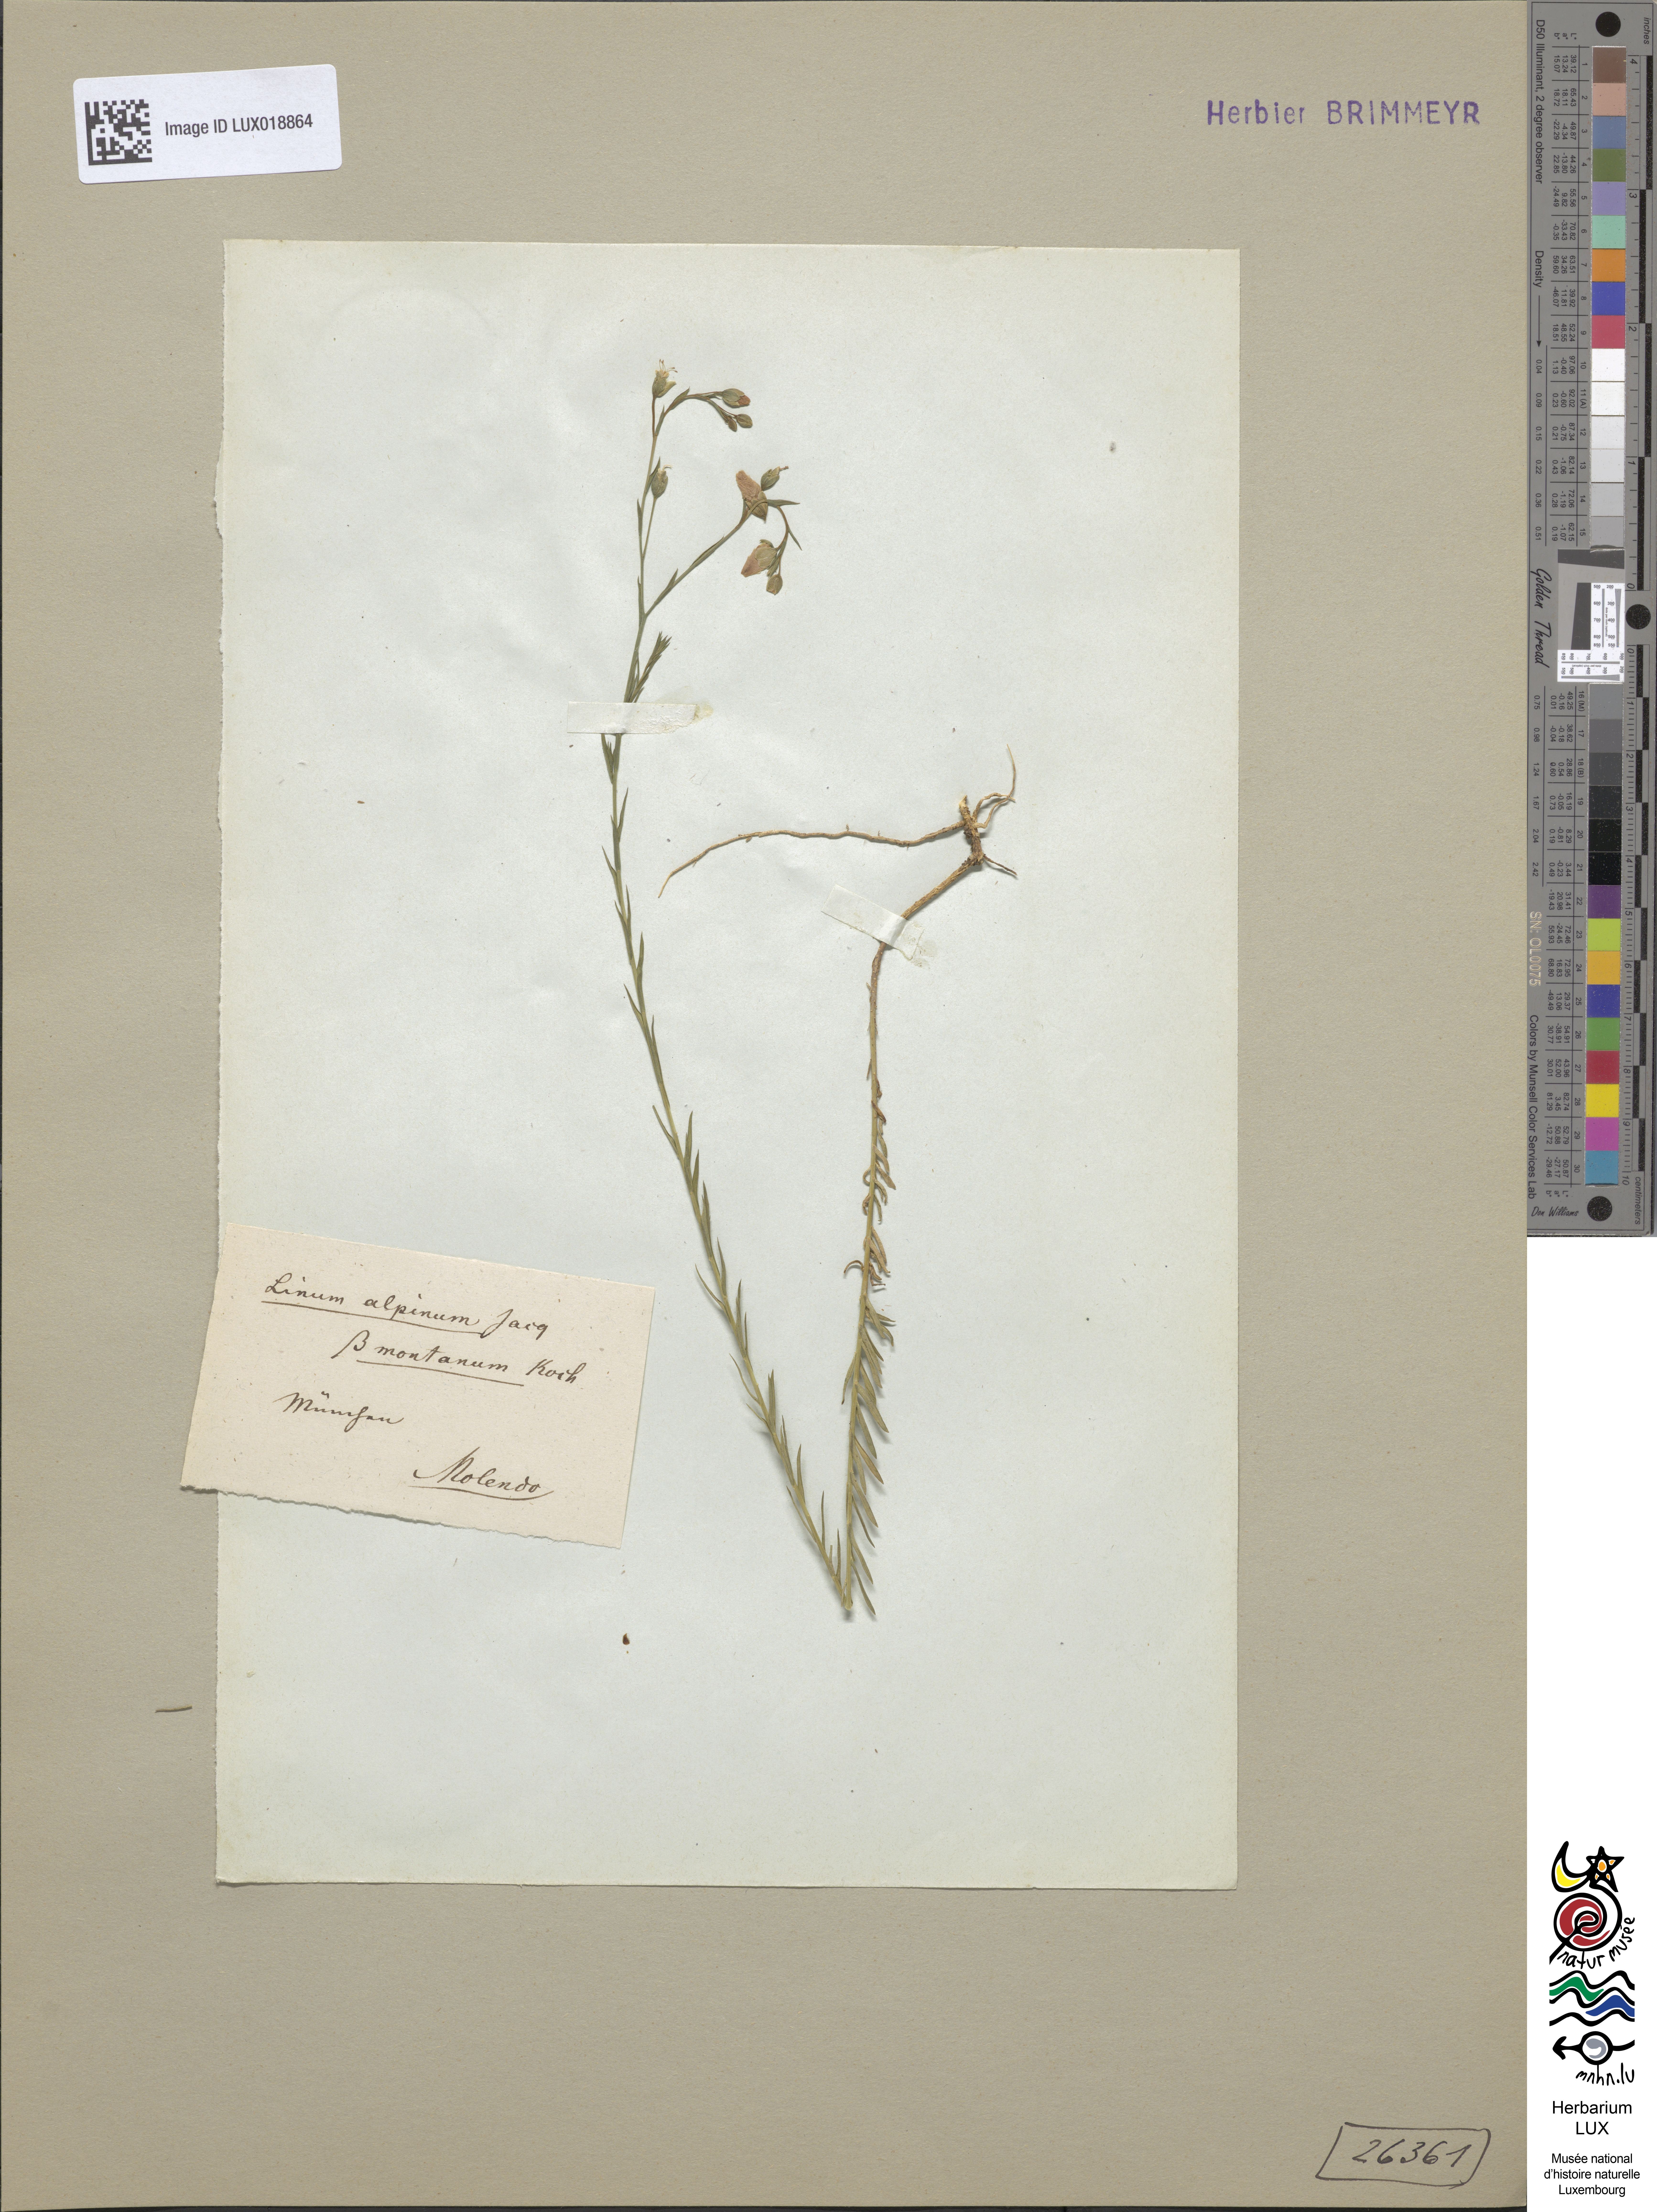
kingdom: Plantae
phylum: Tracheophyta
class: Magnoliopsida
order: Malpighiales
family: Linaceae
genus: Linum
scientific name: Linum alpinum
